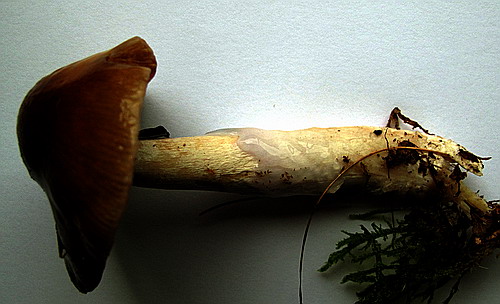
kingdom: Fungi
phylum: Basidiomycota
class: Agaricomycetes
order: Agaricales
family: Cortinariaceae
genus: Cortinarius
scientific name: Cortinarius elatior
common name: høj slørhat
